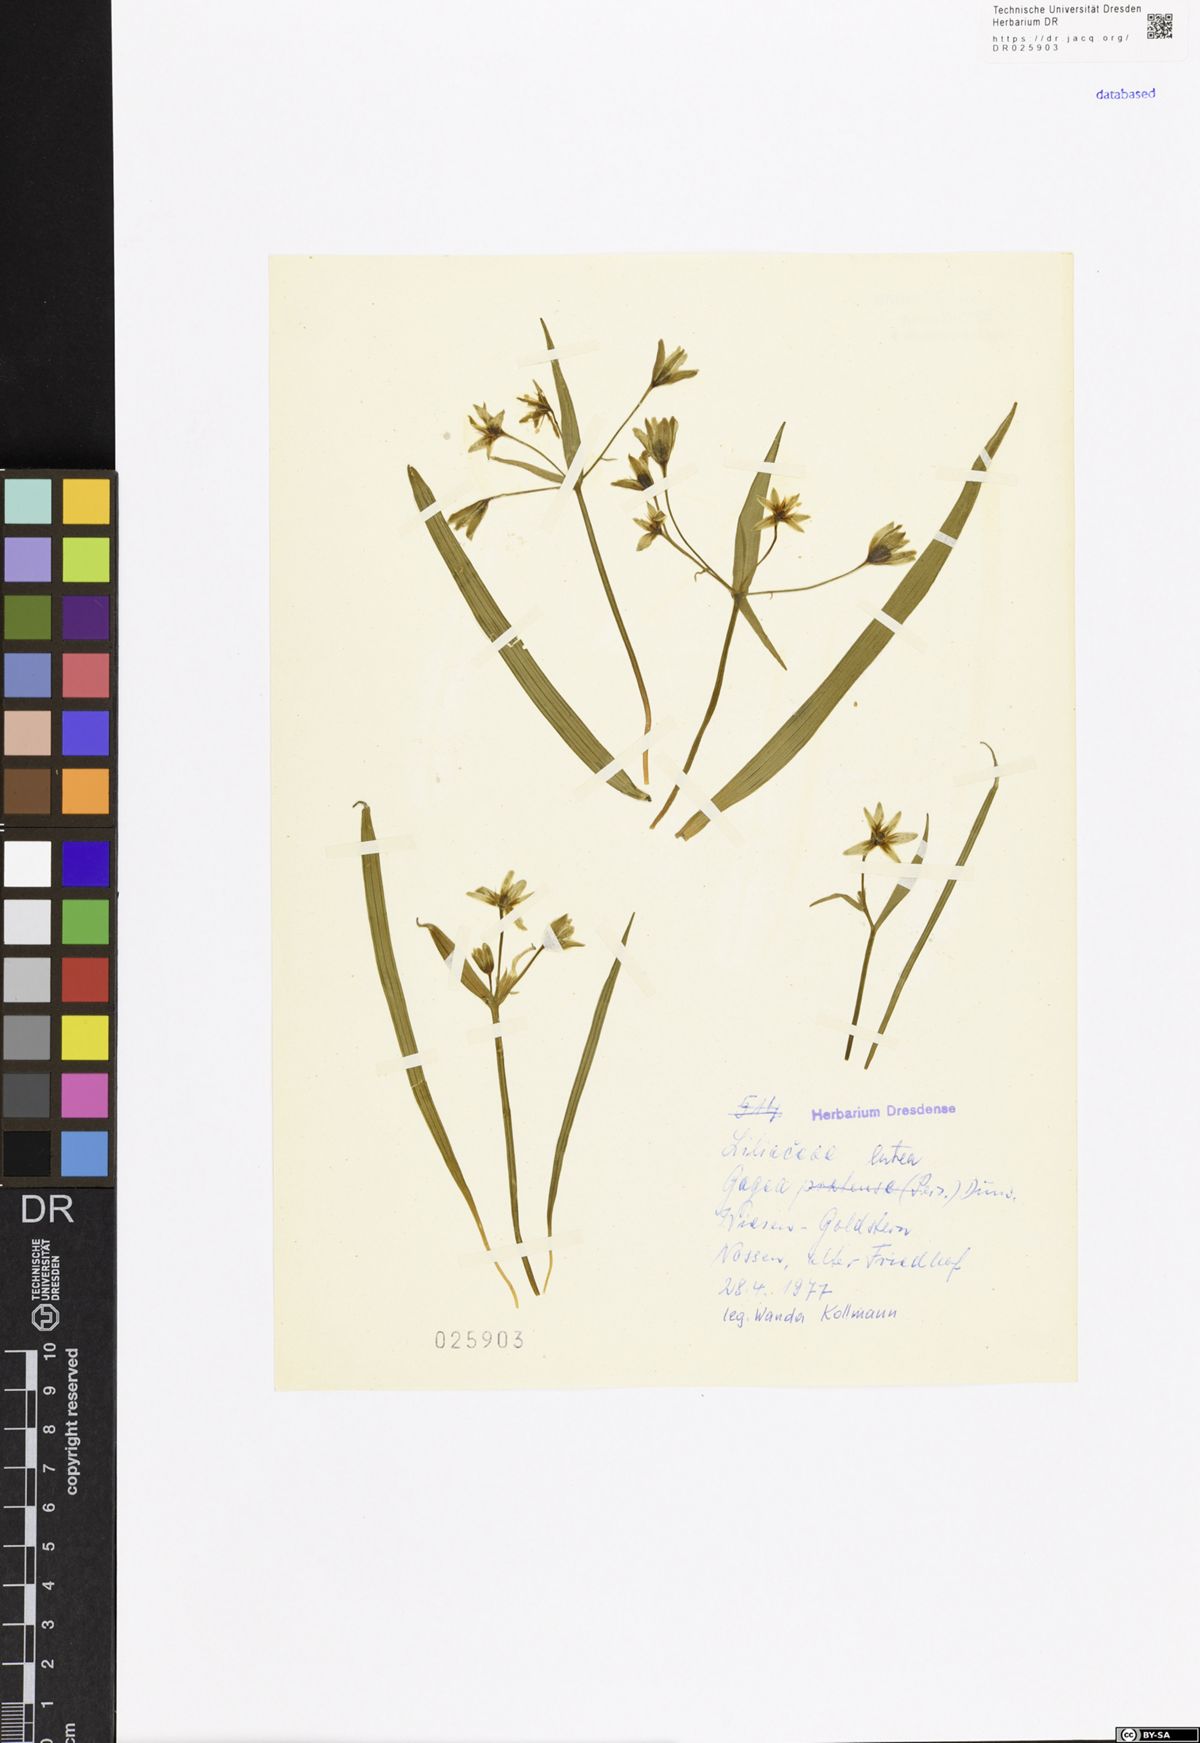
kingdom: Plantae
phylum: Tracheophyta
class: Liliopsida
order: Liliales
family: Liliaceae
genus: Gagea
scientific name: Gagea lutea
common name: Yellow star-of-bethlehem
